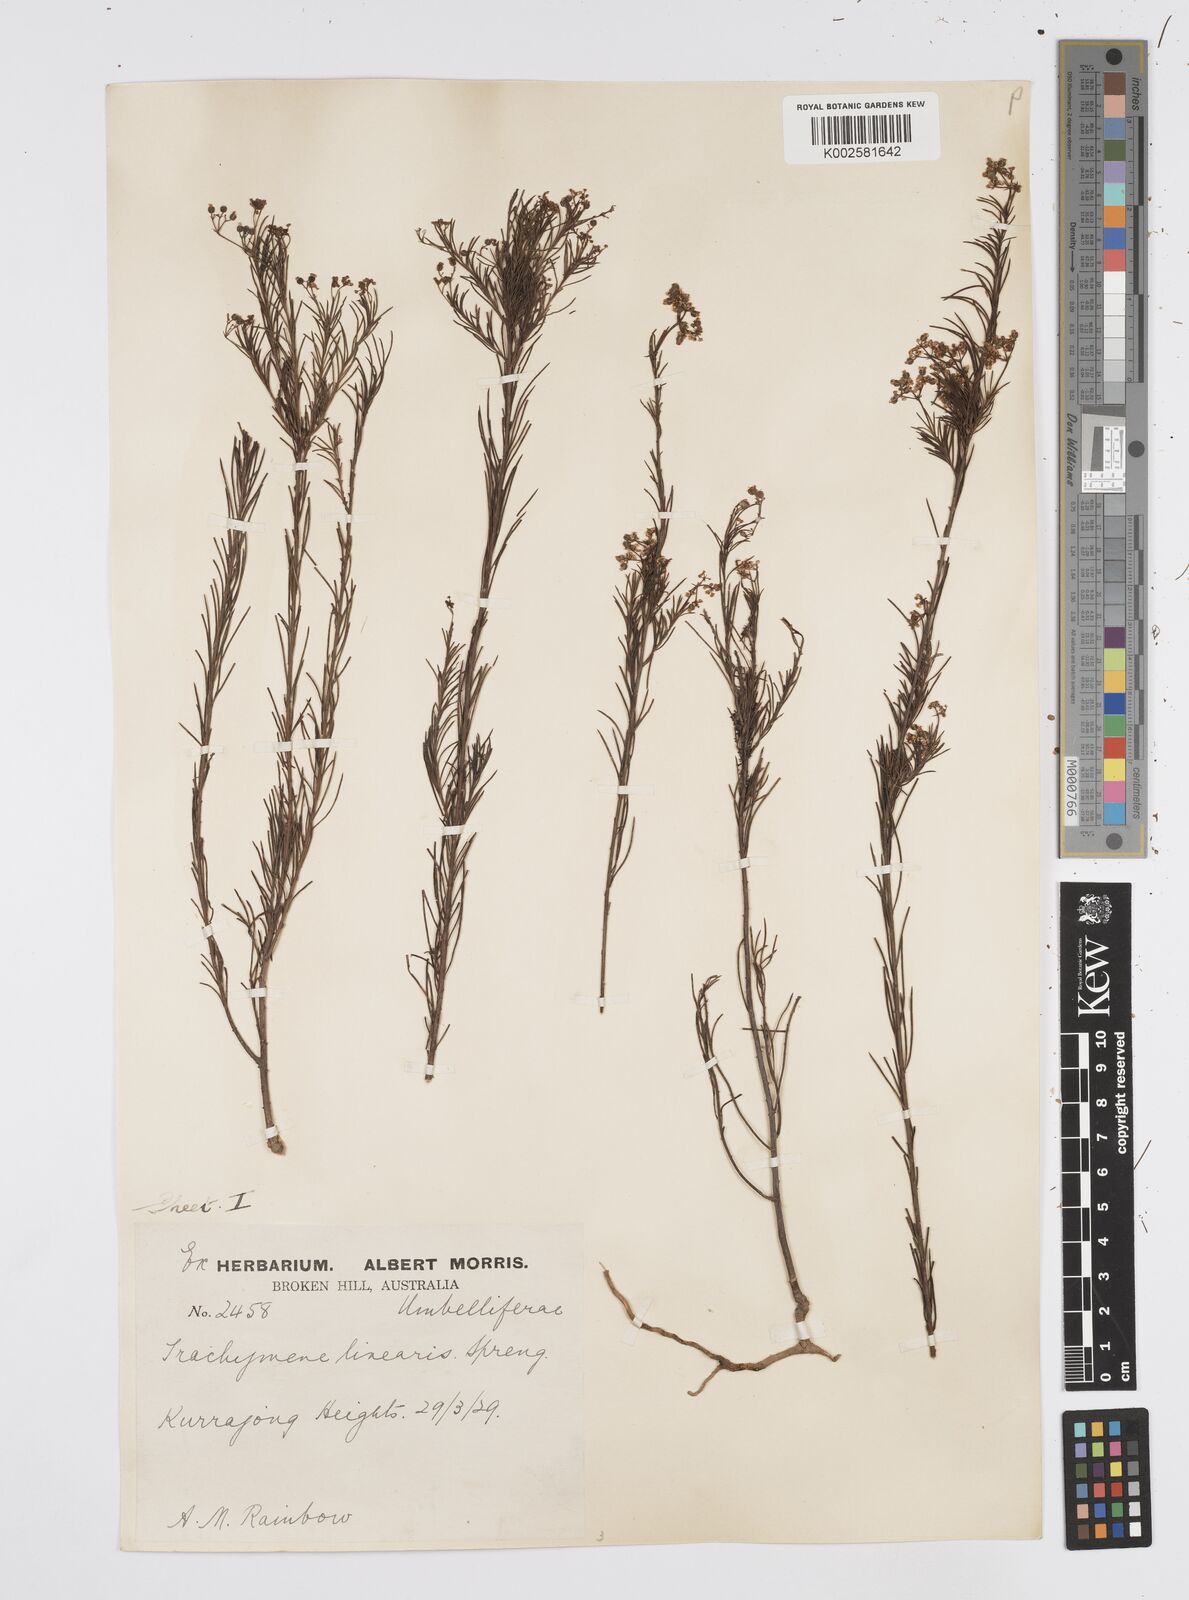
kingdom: Plantae
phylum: Tracheophyta
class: Magnoliopsida
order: Apiales
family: Apiaceae
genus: Platysace
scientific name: Platysace linearifolia
